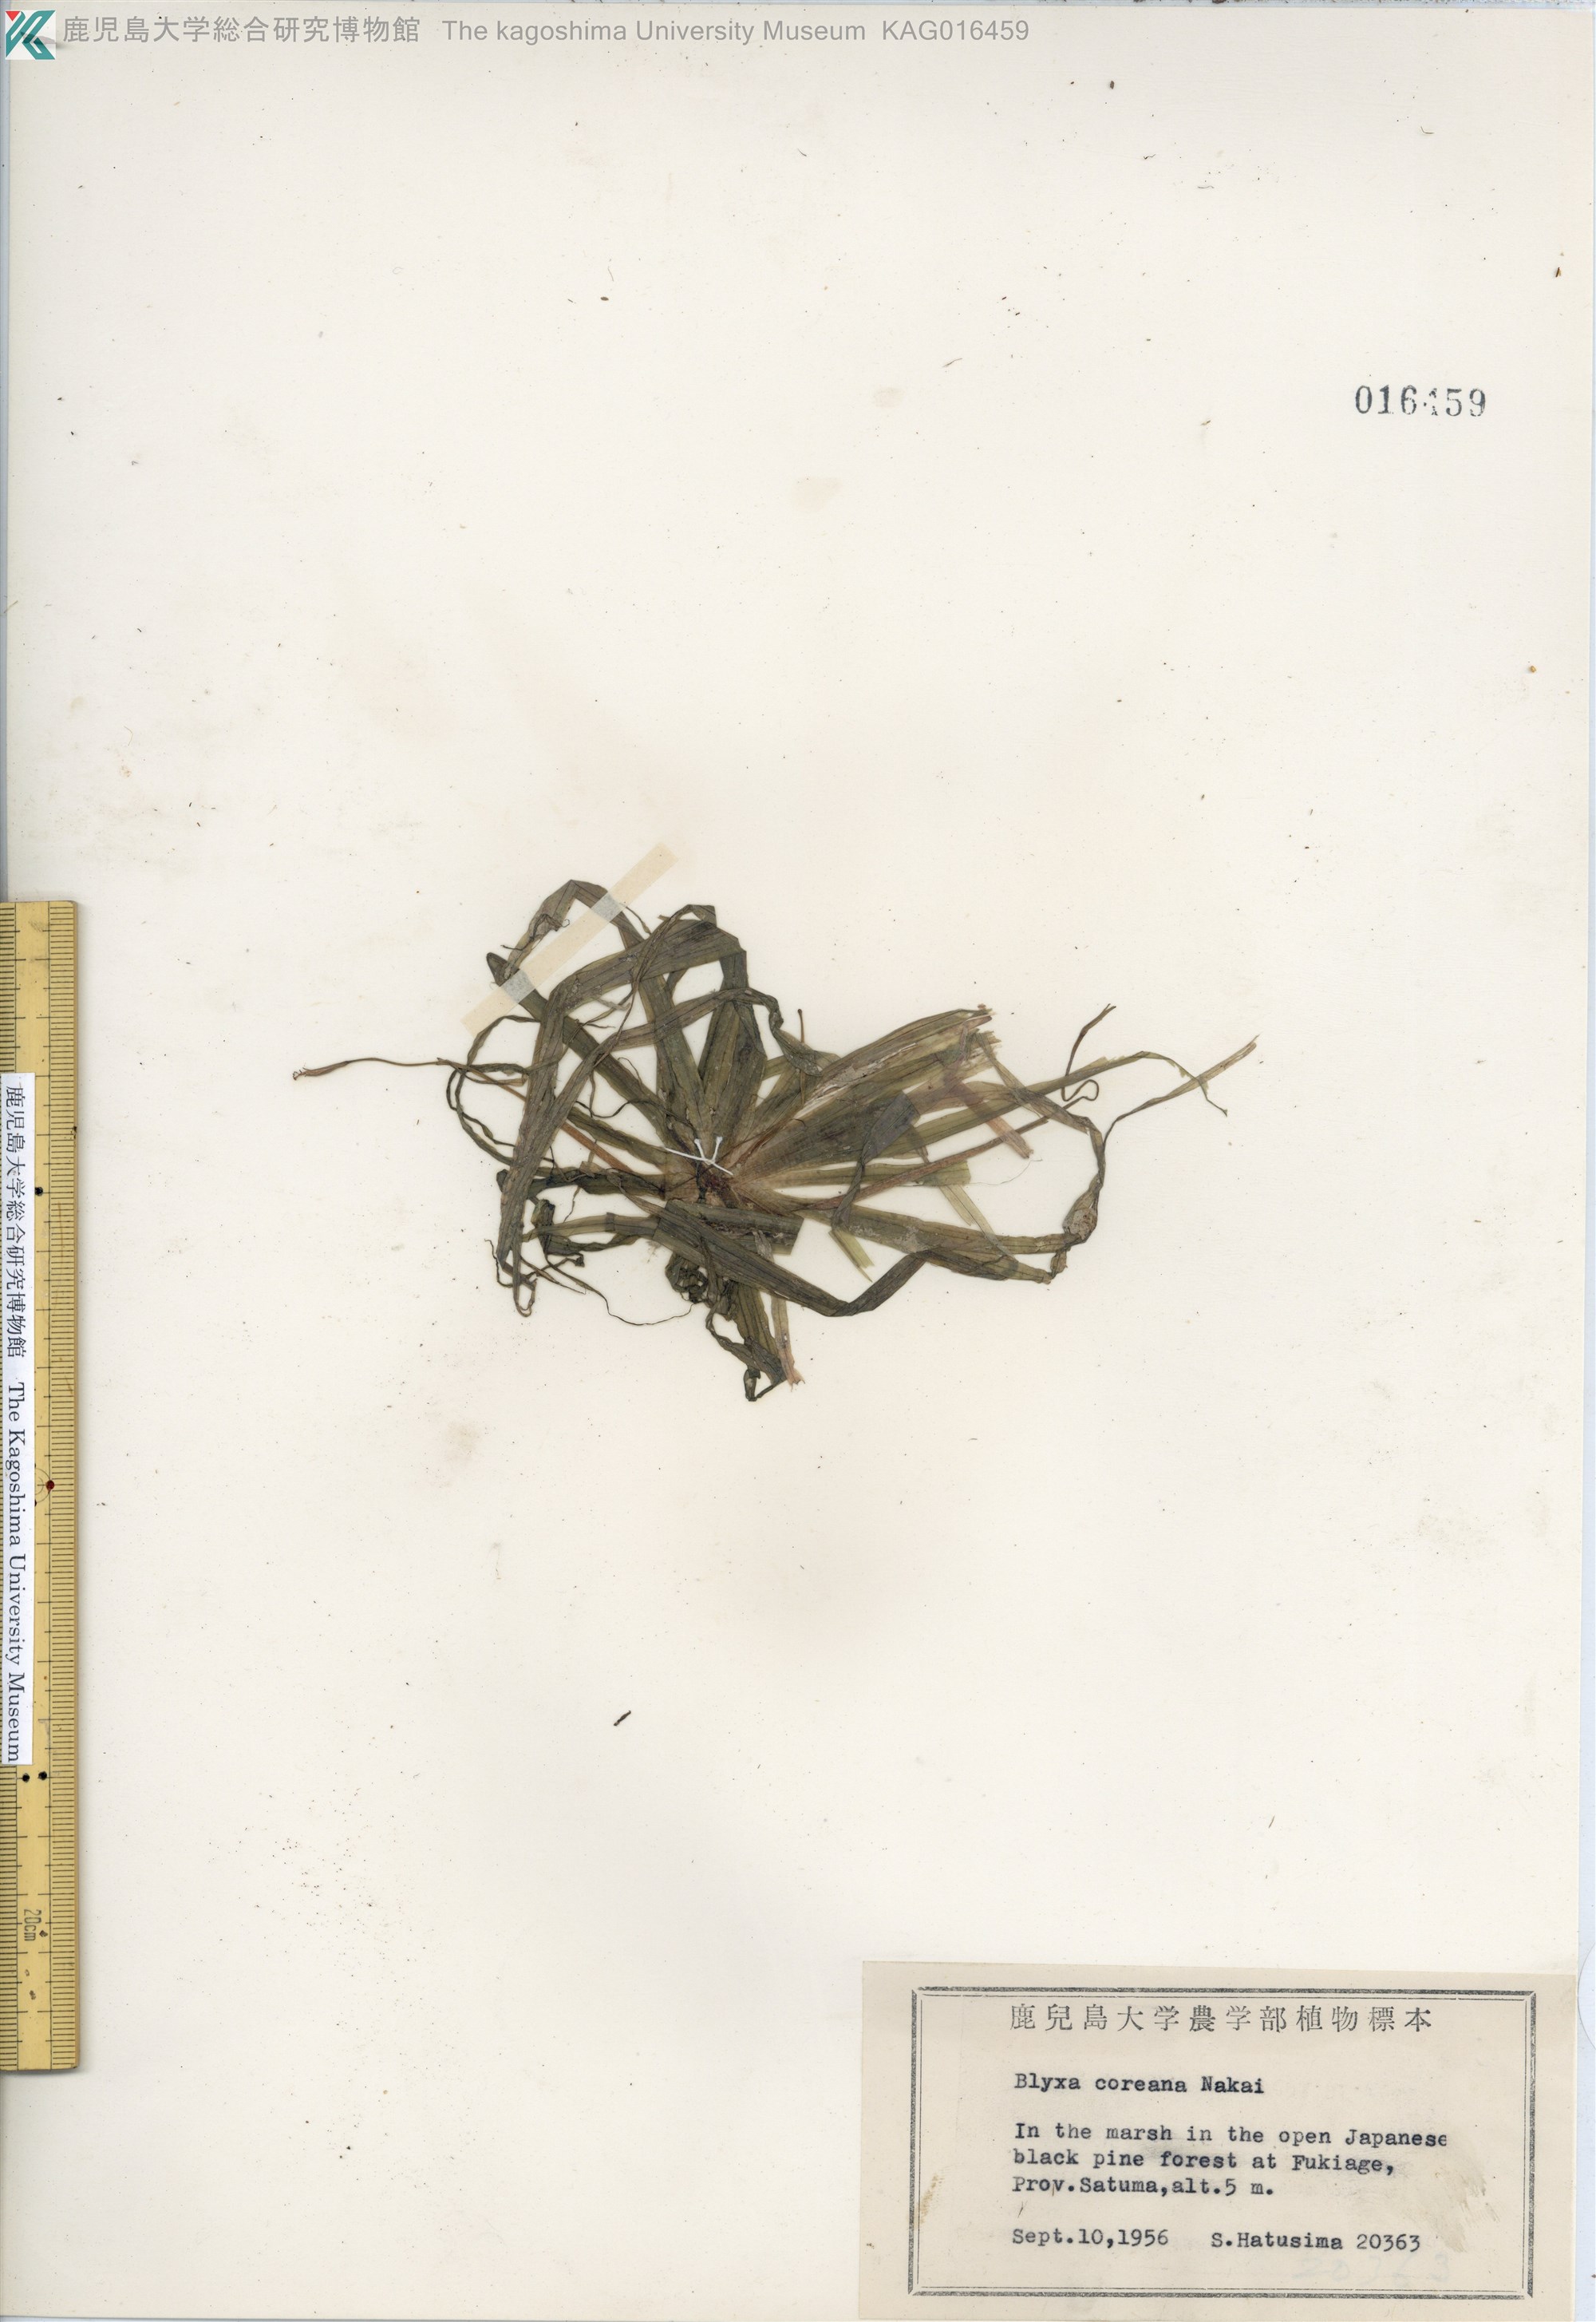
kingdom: Plantae
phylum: Tracheophyta
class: Liliopsida
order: Alismatales
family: Hydrocharitaceae
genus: Blyxa
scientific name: Blyxa aubertii
